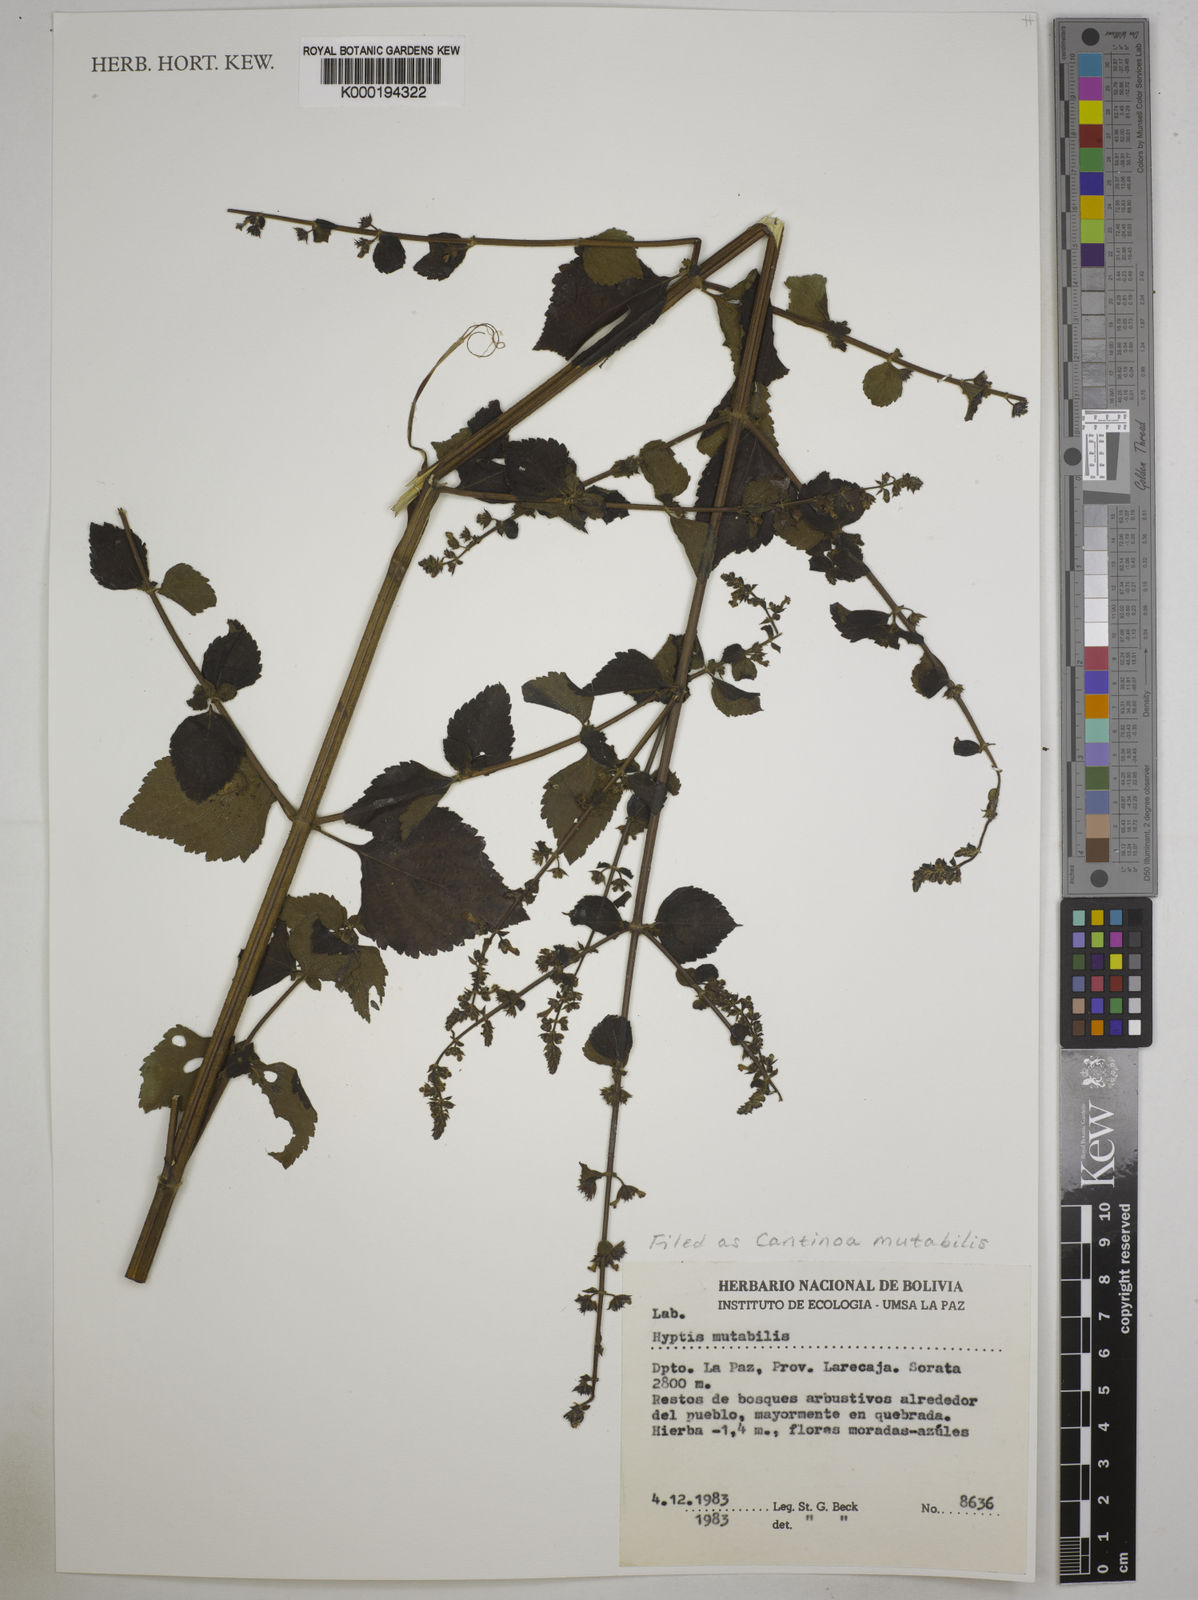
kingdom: Plantae
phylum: Tracheophyta
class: Magnoliopsida
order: Lamiales
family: Lamiaceae
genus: Cantinoa
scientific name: Cantinoa mutabilis
